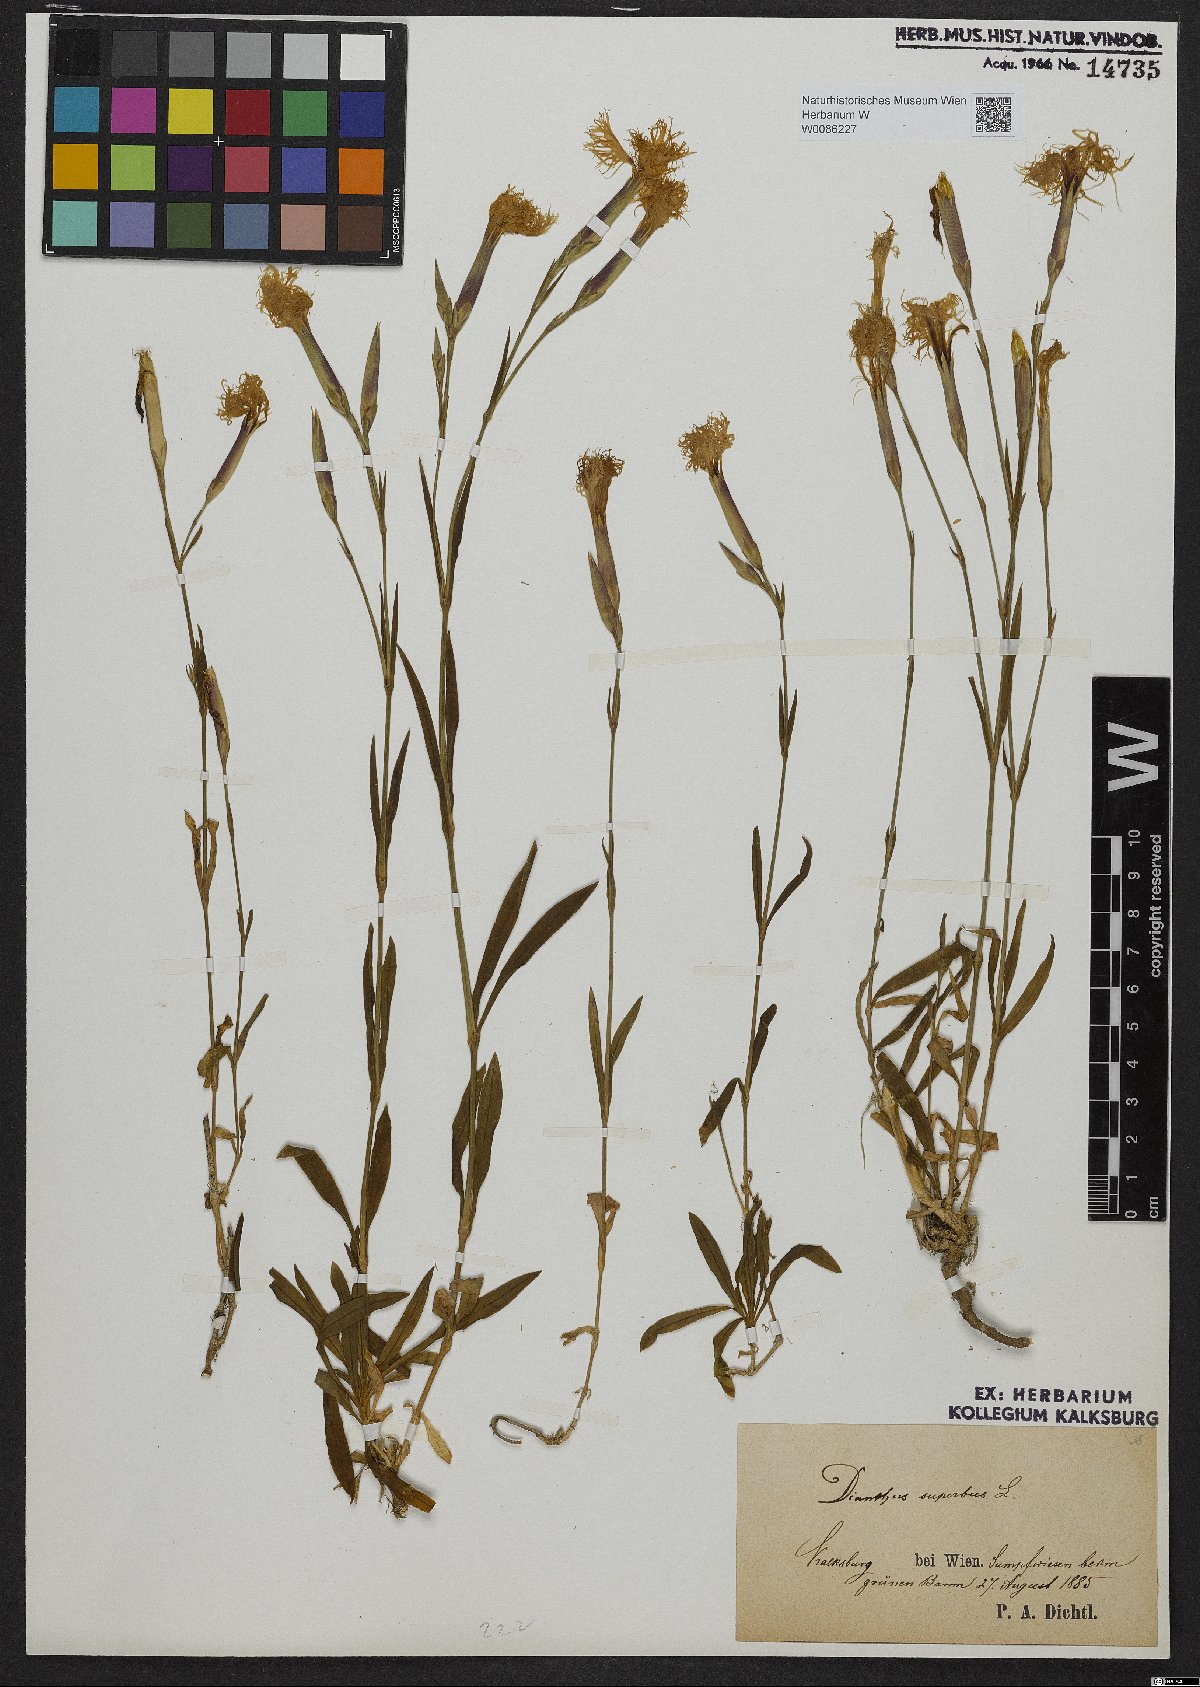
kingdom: Plantae
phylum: Tracheophyta
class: Magnoliopsida
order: Caryophyllales
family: Caryophyllaceae
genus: Dianthus
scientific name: Dianthus superbus
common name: Fringed pink
